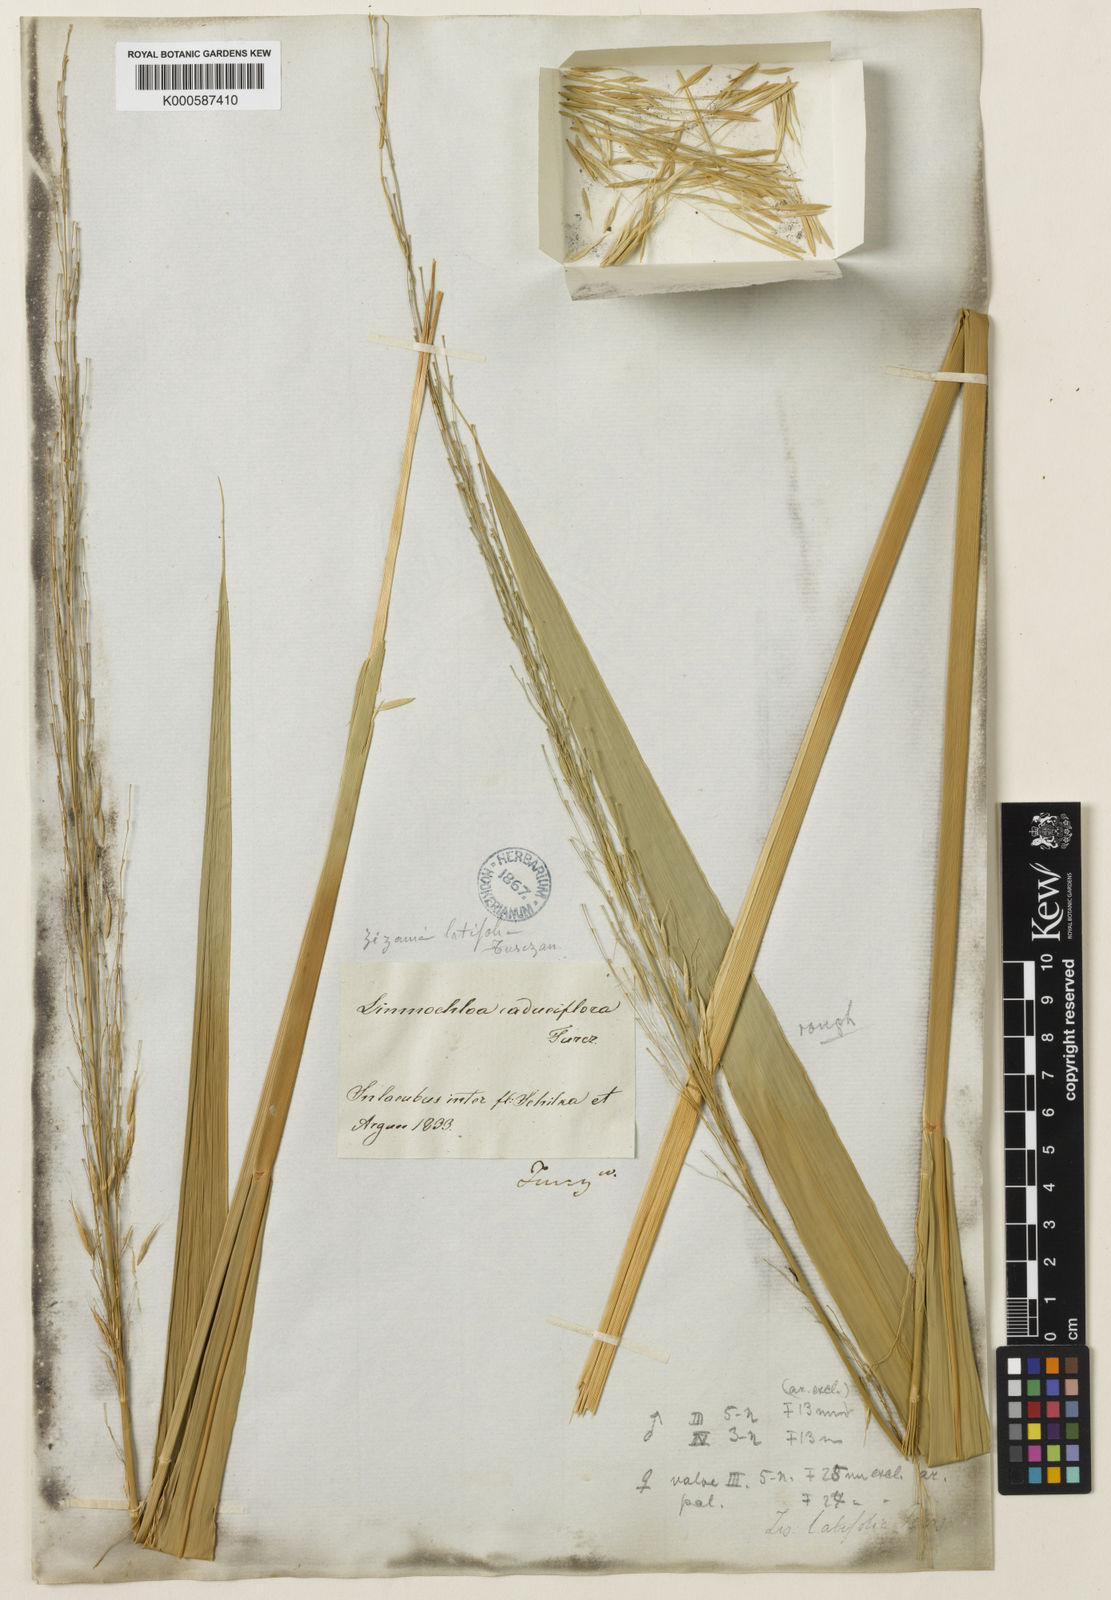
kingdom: Plantae
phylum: Tracheophyta
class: Liliopsida
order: Poales
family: Poaceae
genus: Zizania
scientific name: Zizania
